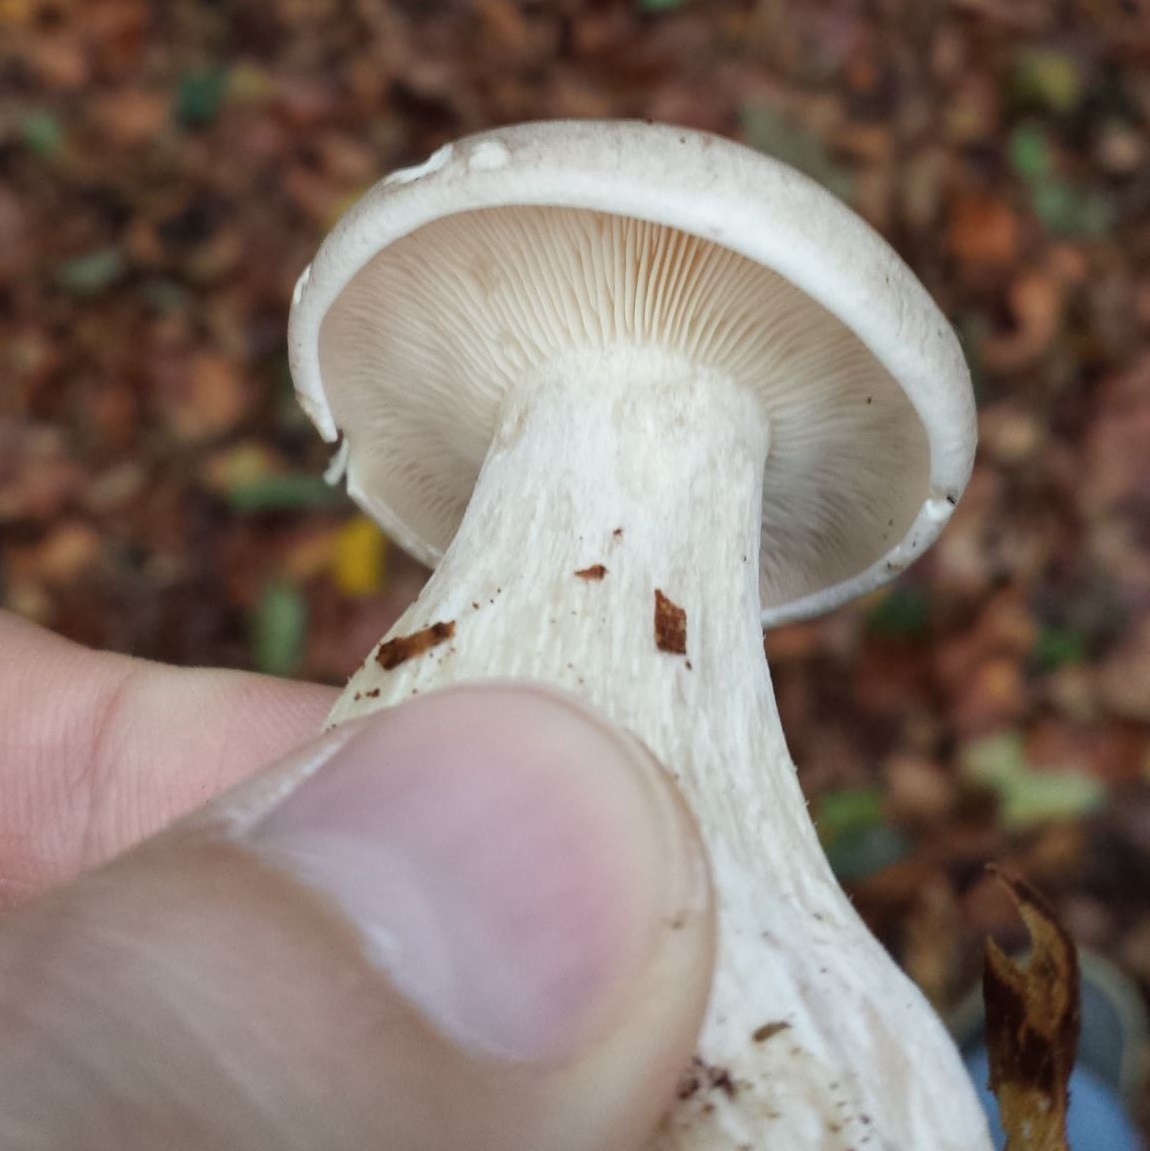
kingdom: Fungi
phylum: Basidiomycota
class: Agaricomycetes
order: Agaricales
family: Tricholomataceae
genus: Clitocybe
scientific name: Clitocybe nebularis
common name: tåge-tragthat
